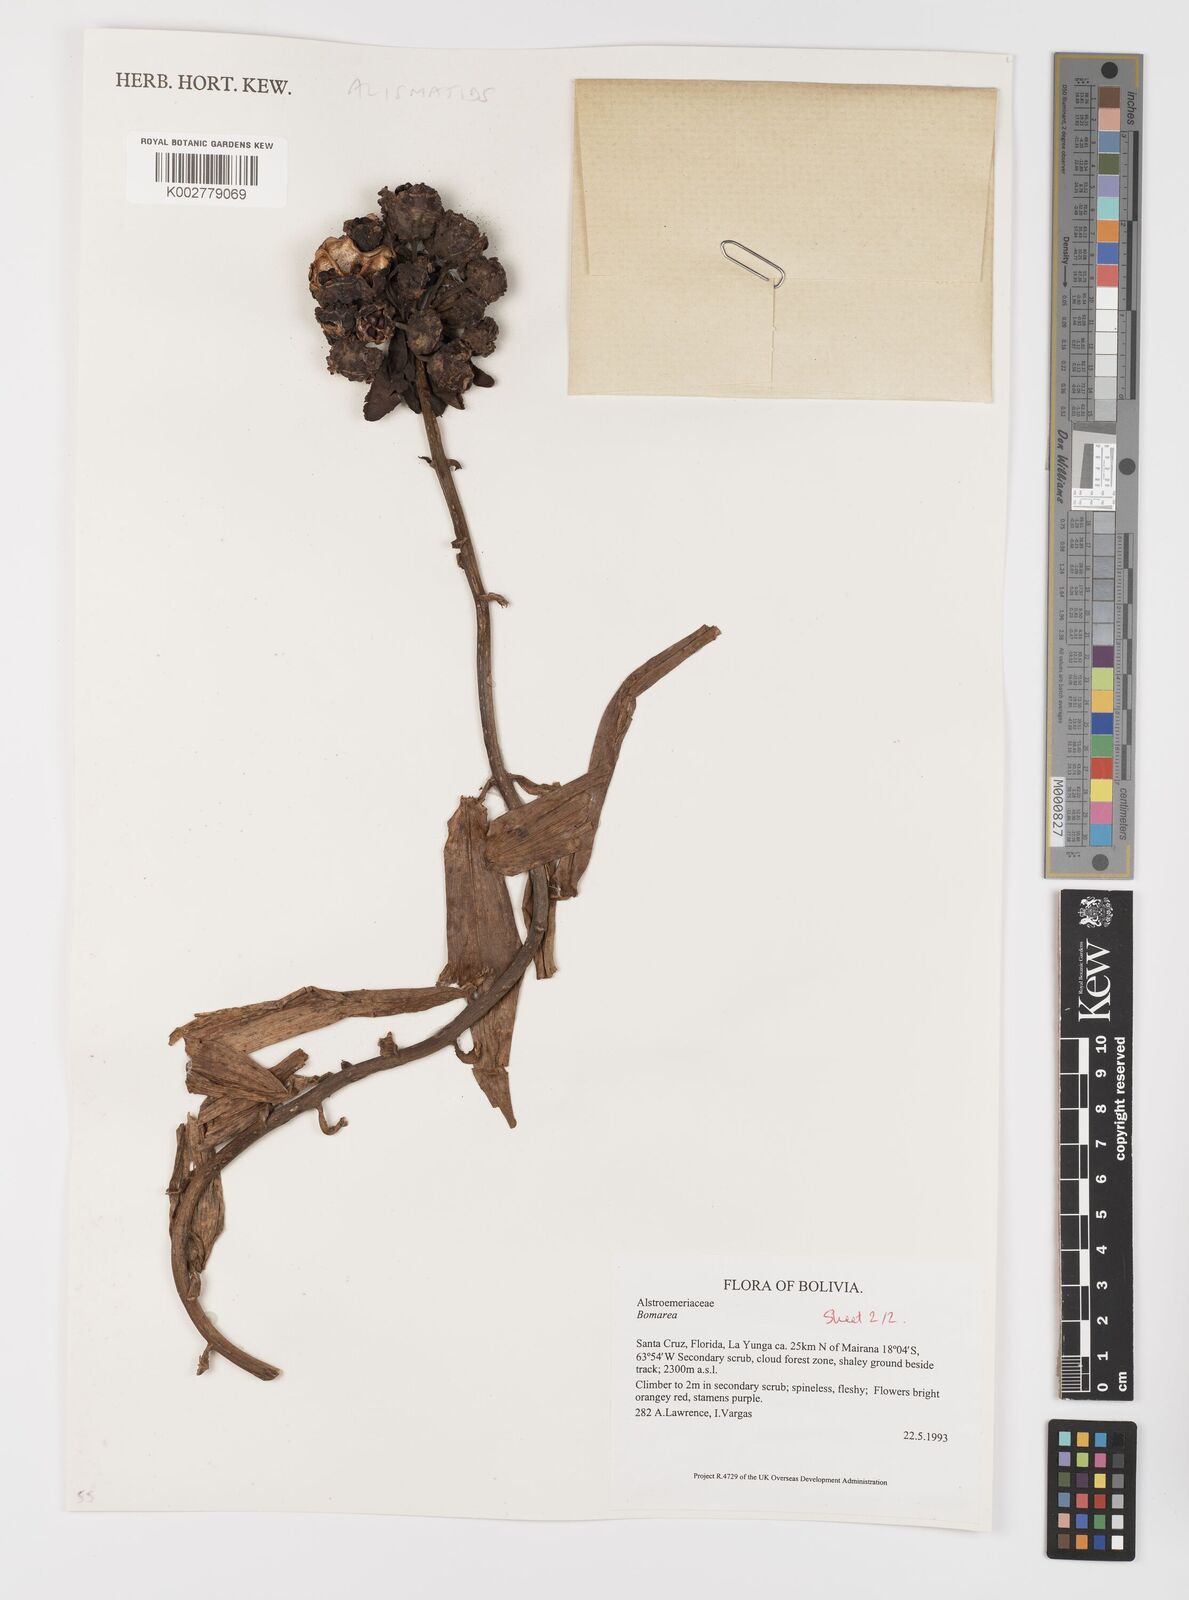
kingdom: Plantae
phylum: Tracheophyta
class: Liliopsida
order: Liliales
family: Alstroemeriaceae
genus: Bomarea
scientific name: Bomarea
